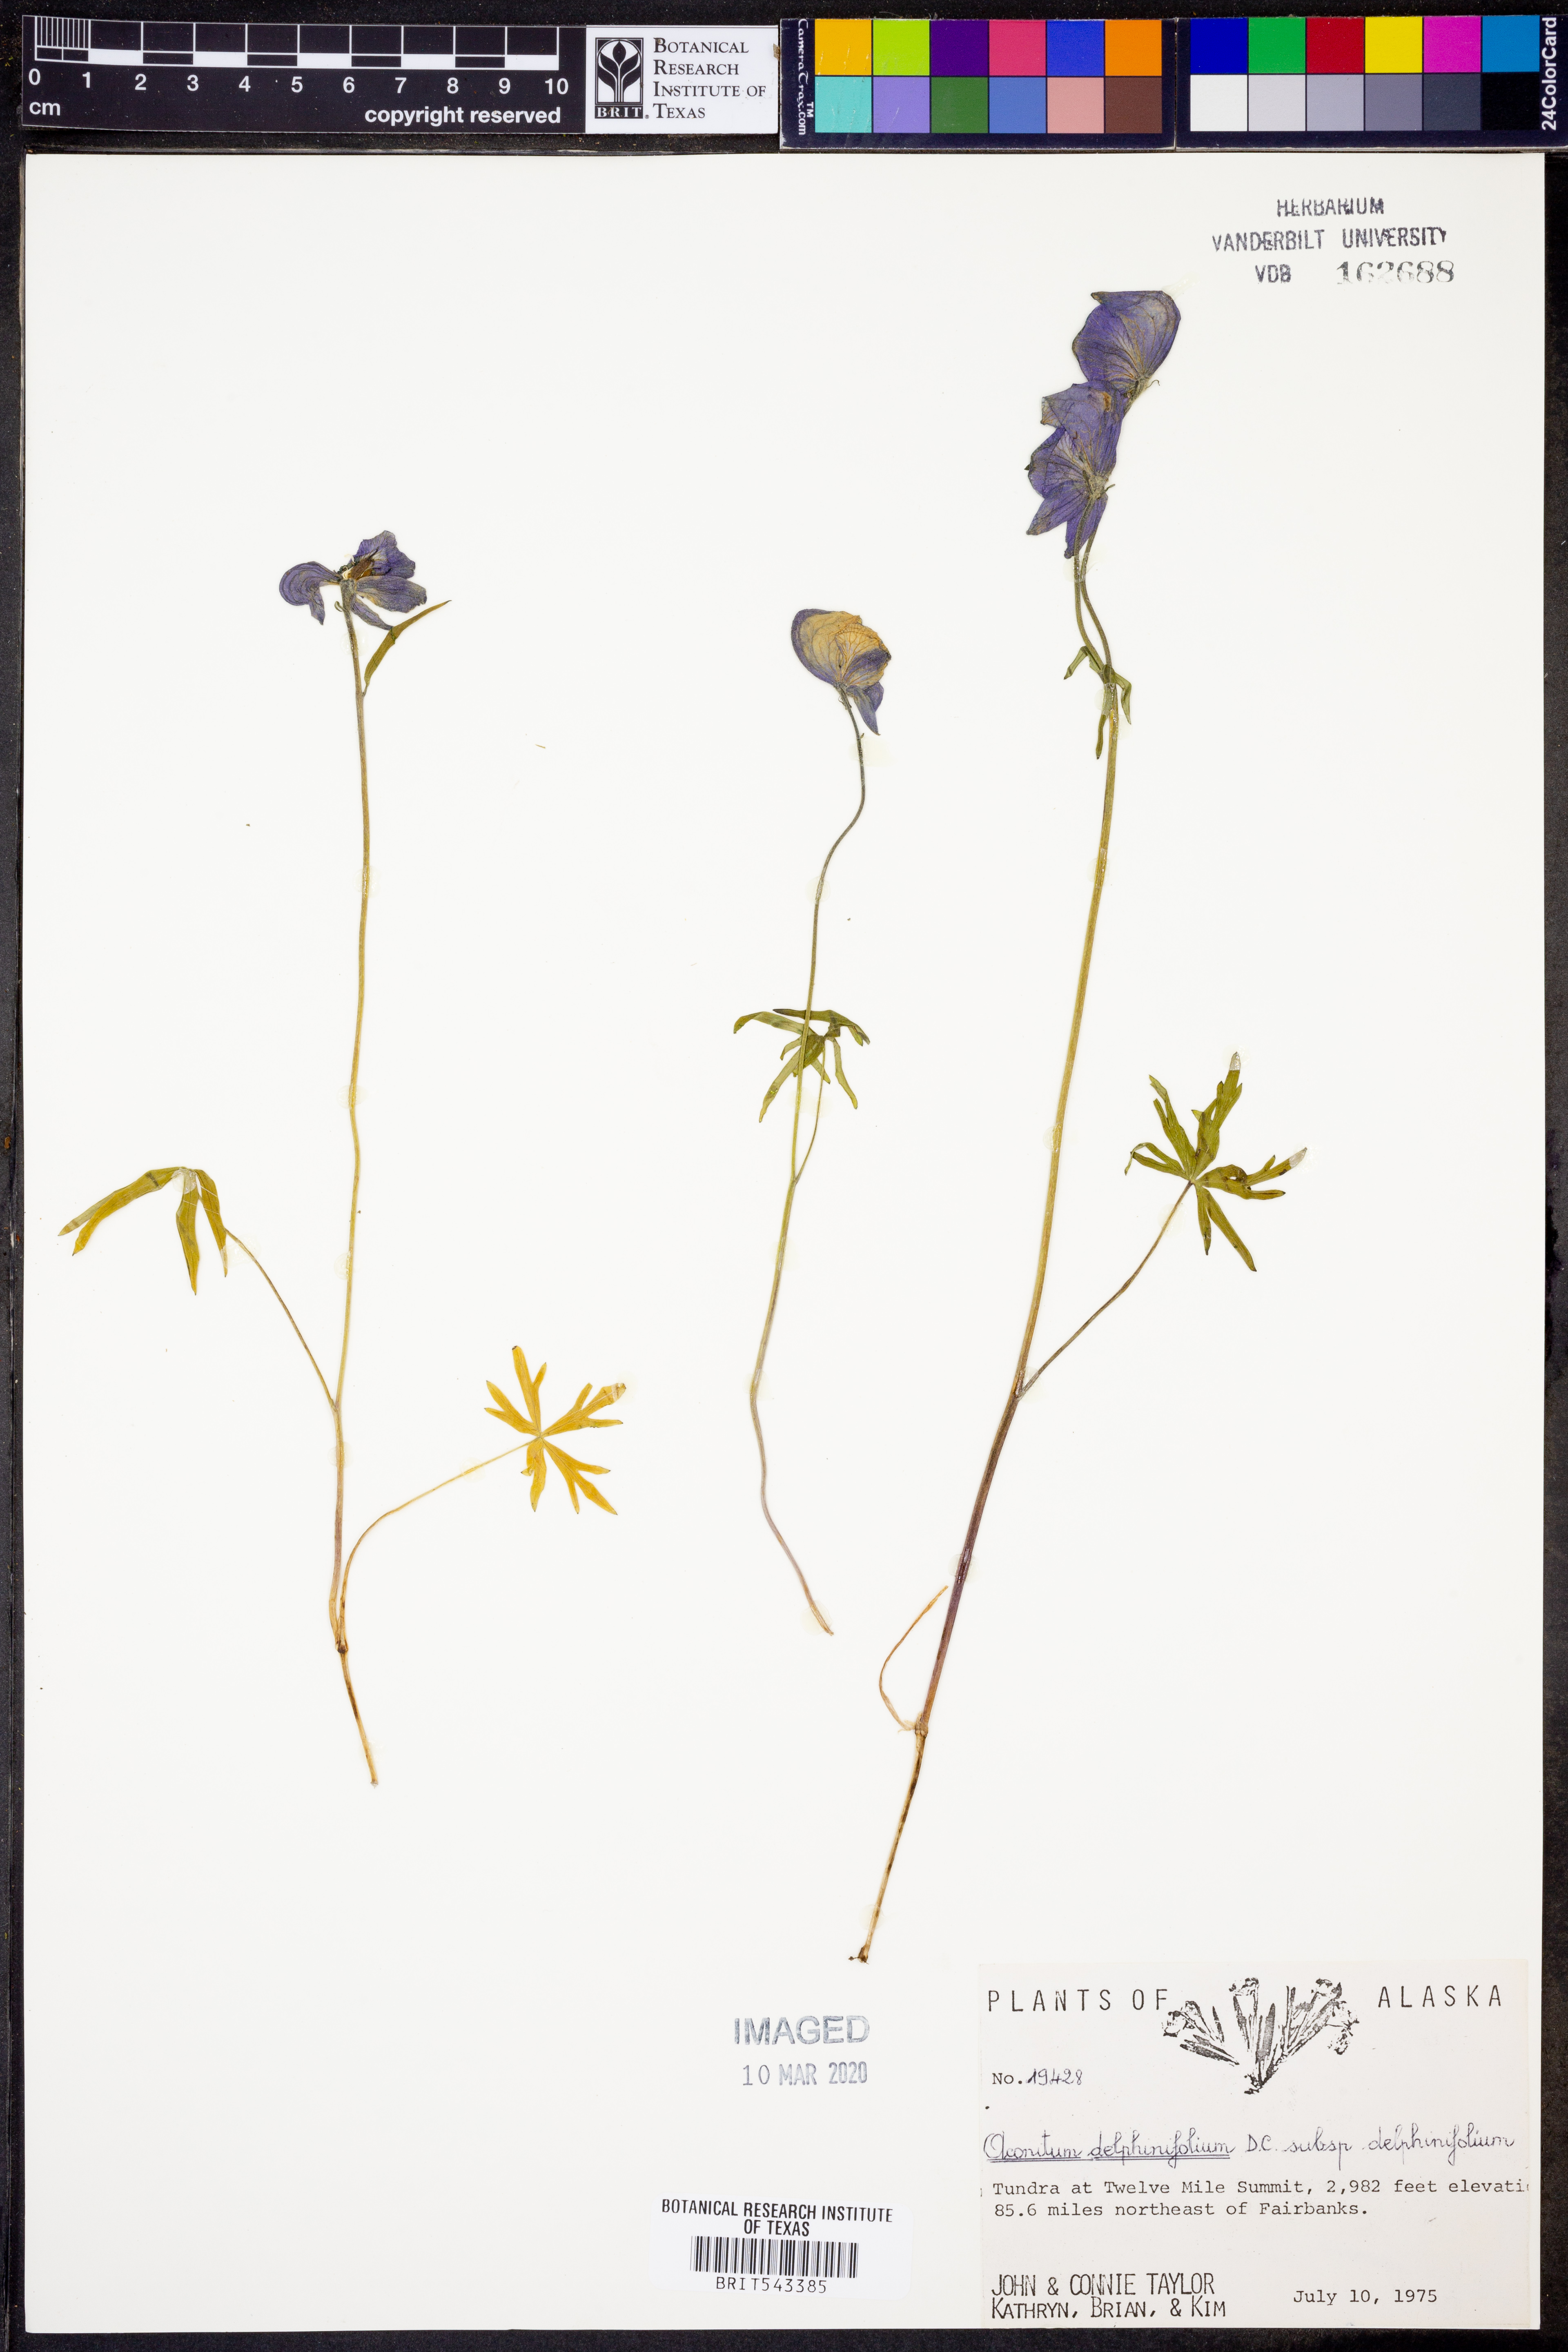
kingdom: Plantae
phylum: Tracheophyta
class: Magnoliopsida
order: Ranunculales
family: Ranunculaceae
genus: Aconitum
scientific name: Aconitum delphiniifolium
